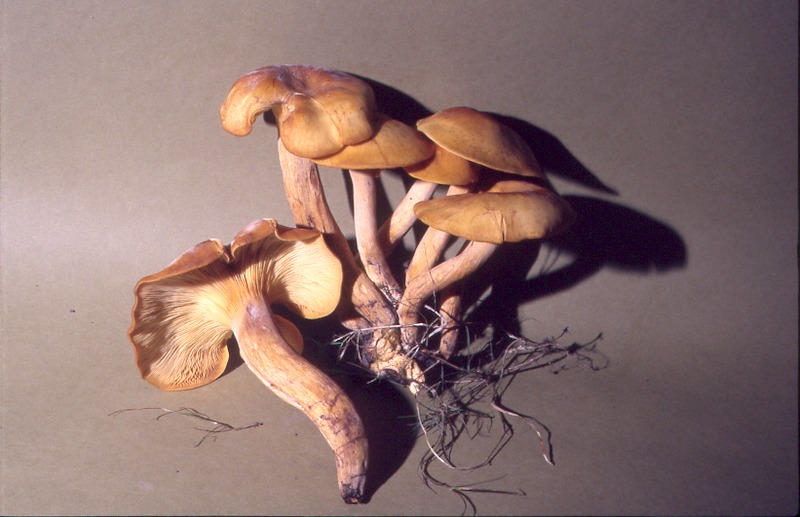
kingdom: Fungi
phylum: Basidiomycota
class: Agaricomycetes
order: Agaricales
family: Omphalotaceae
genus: Omphalotus
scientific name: Omphalotus olearius
